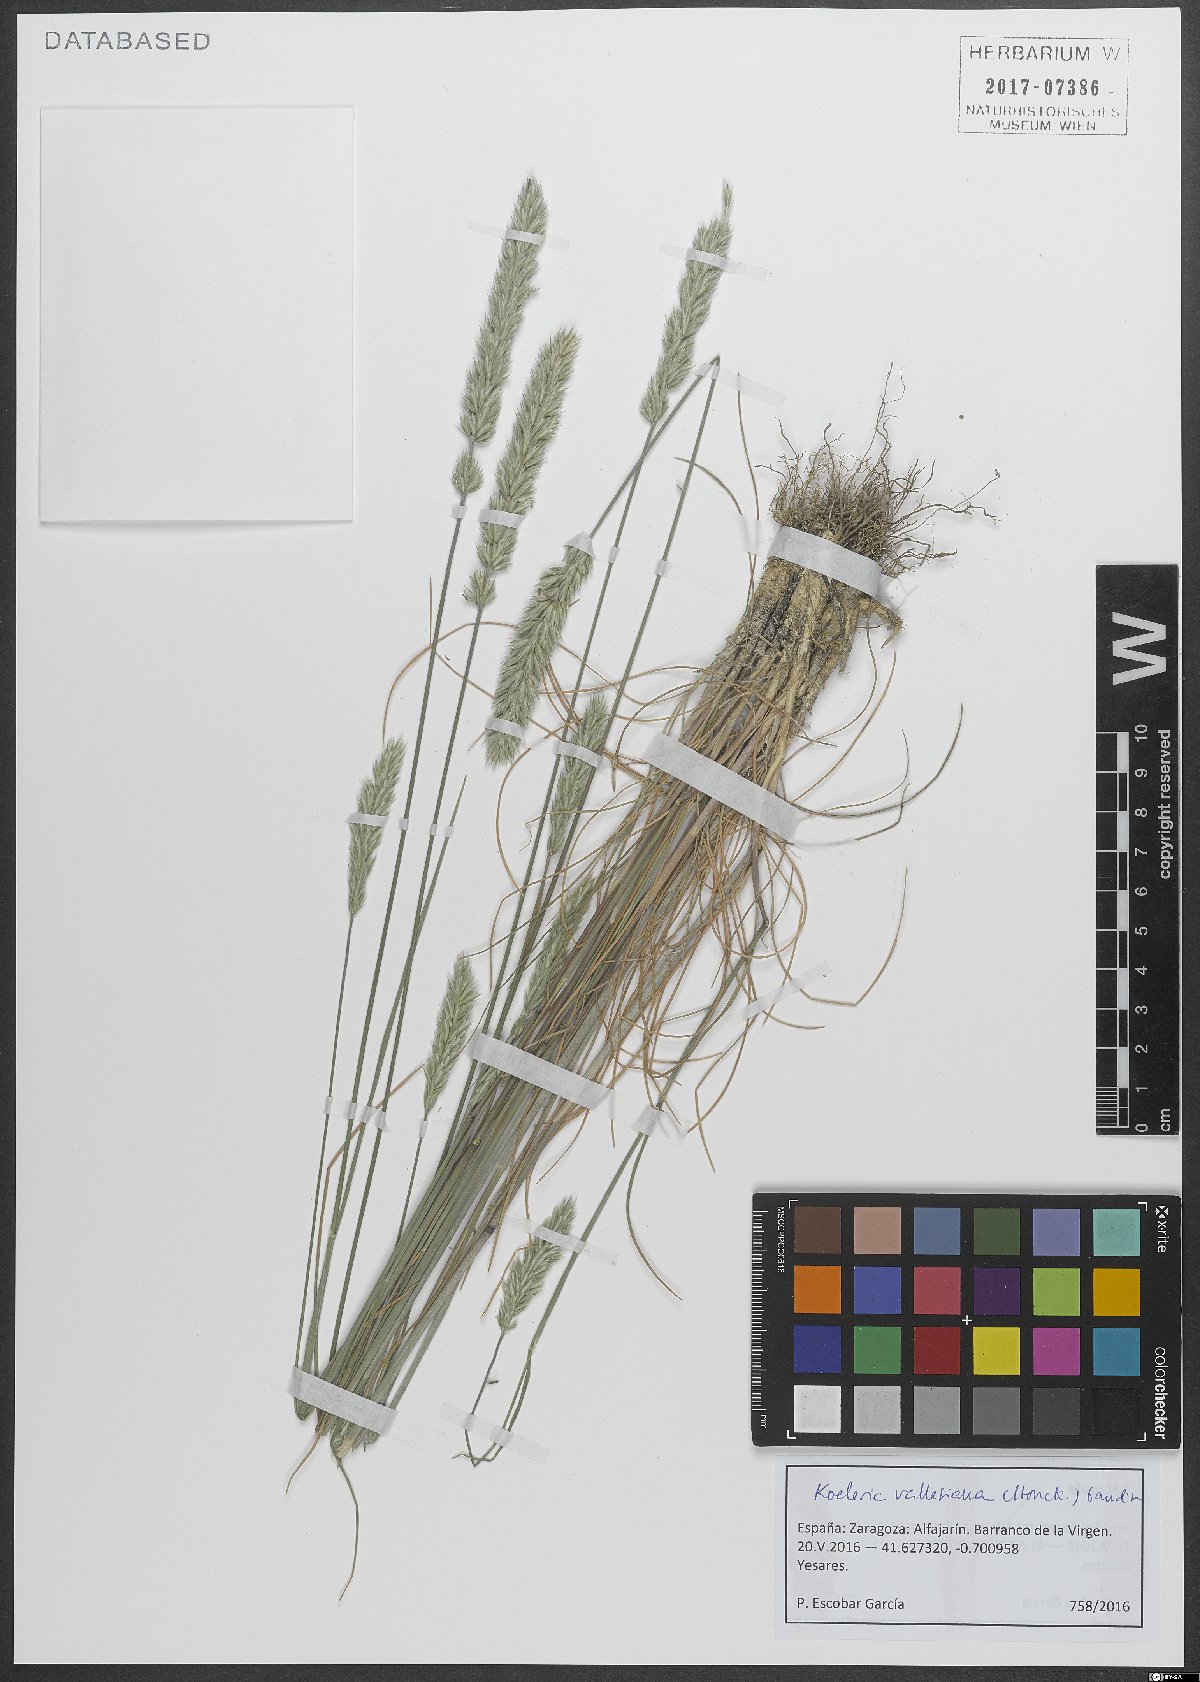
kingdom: Plantae
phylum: Tracheophyta
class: Liliopsida
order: Poales
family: Poaceae
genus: Koeleria
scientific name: Koeleria vallesiana
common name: Somerset hair-grass
